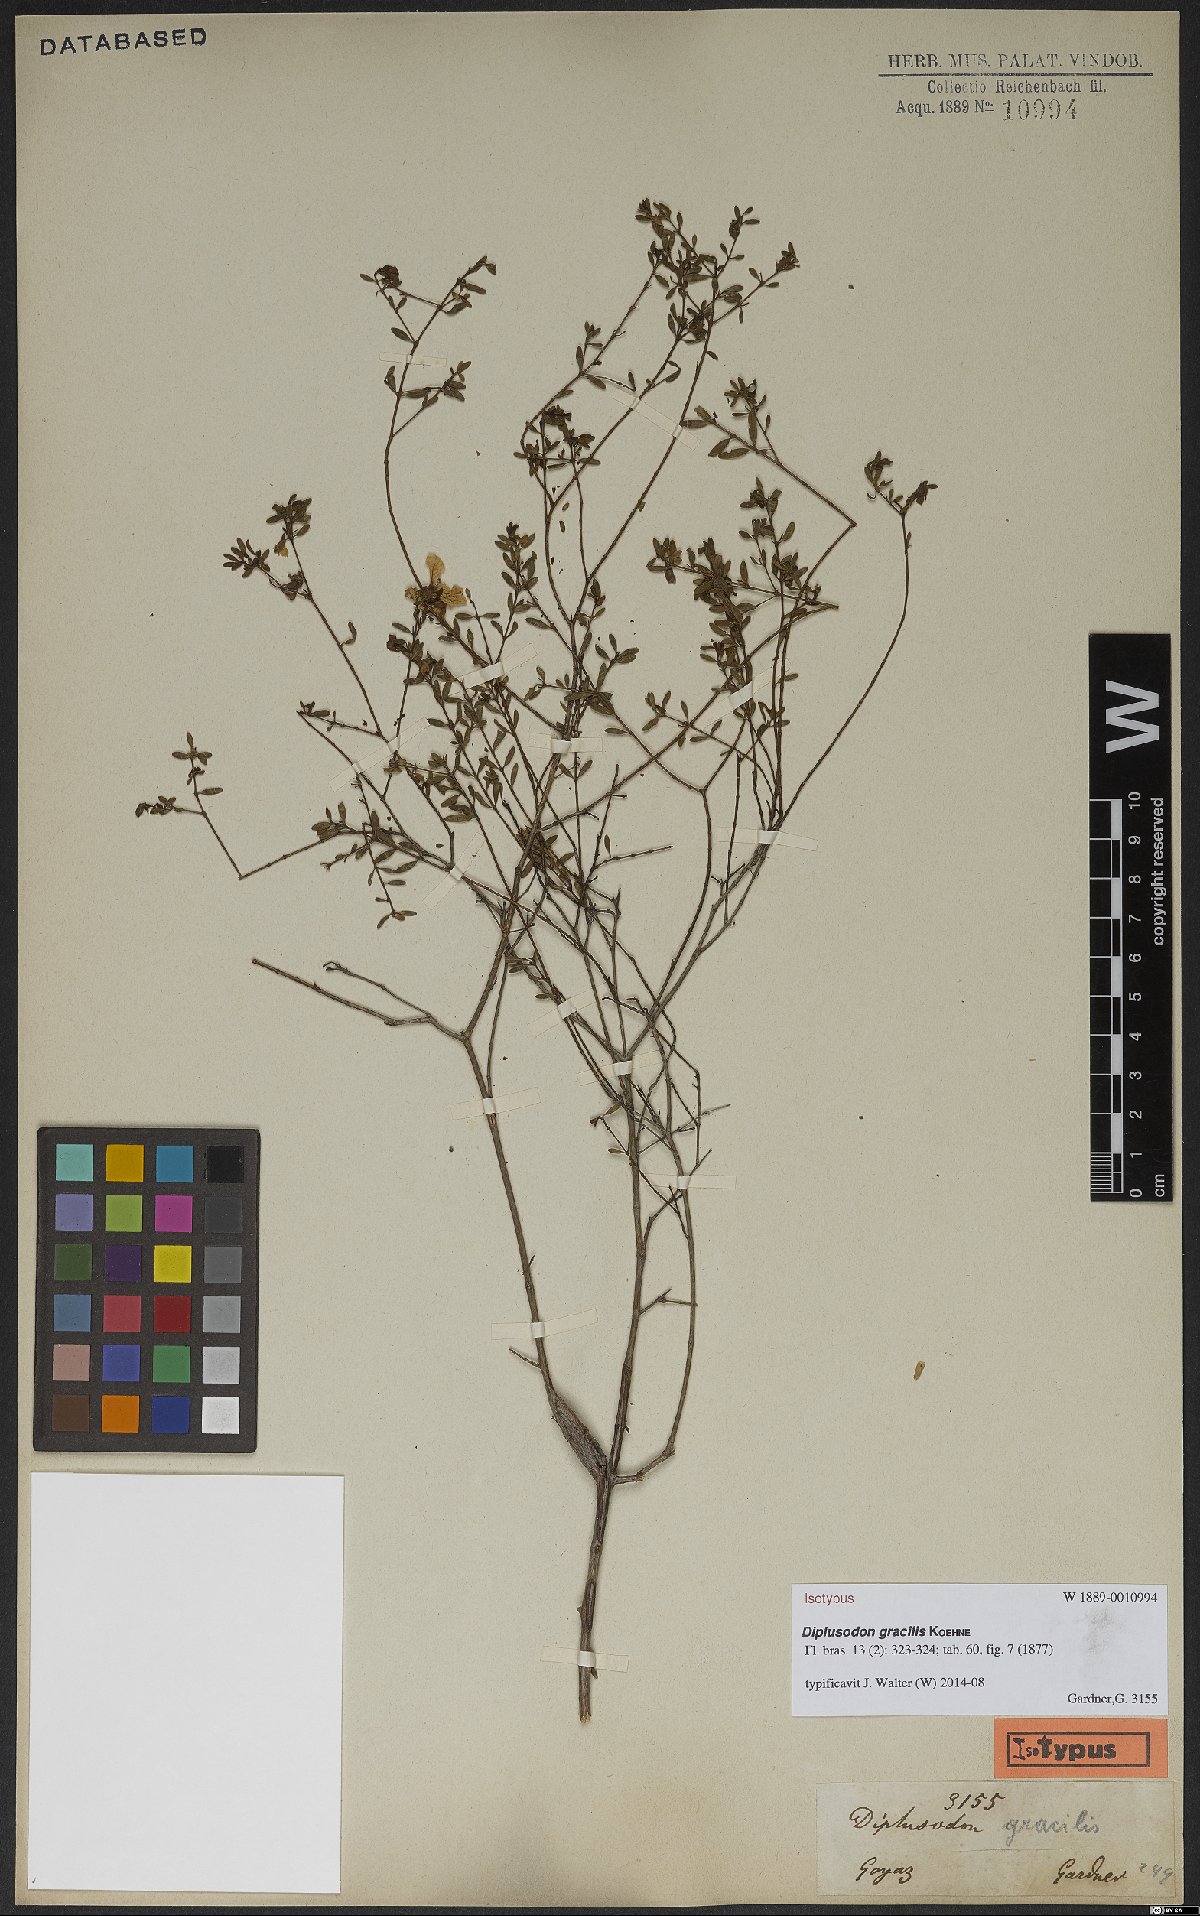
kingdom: Plantae
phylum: Tracheophyta
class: Magnoliopsida
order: Myrtales
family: Lythraceae
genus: Diplusodon
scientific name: Diplusodon gracilis
